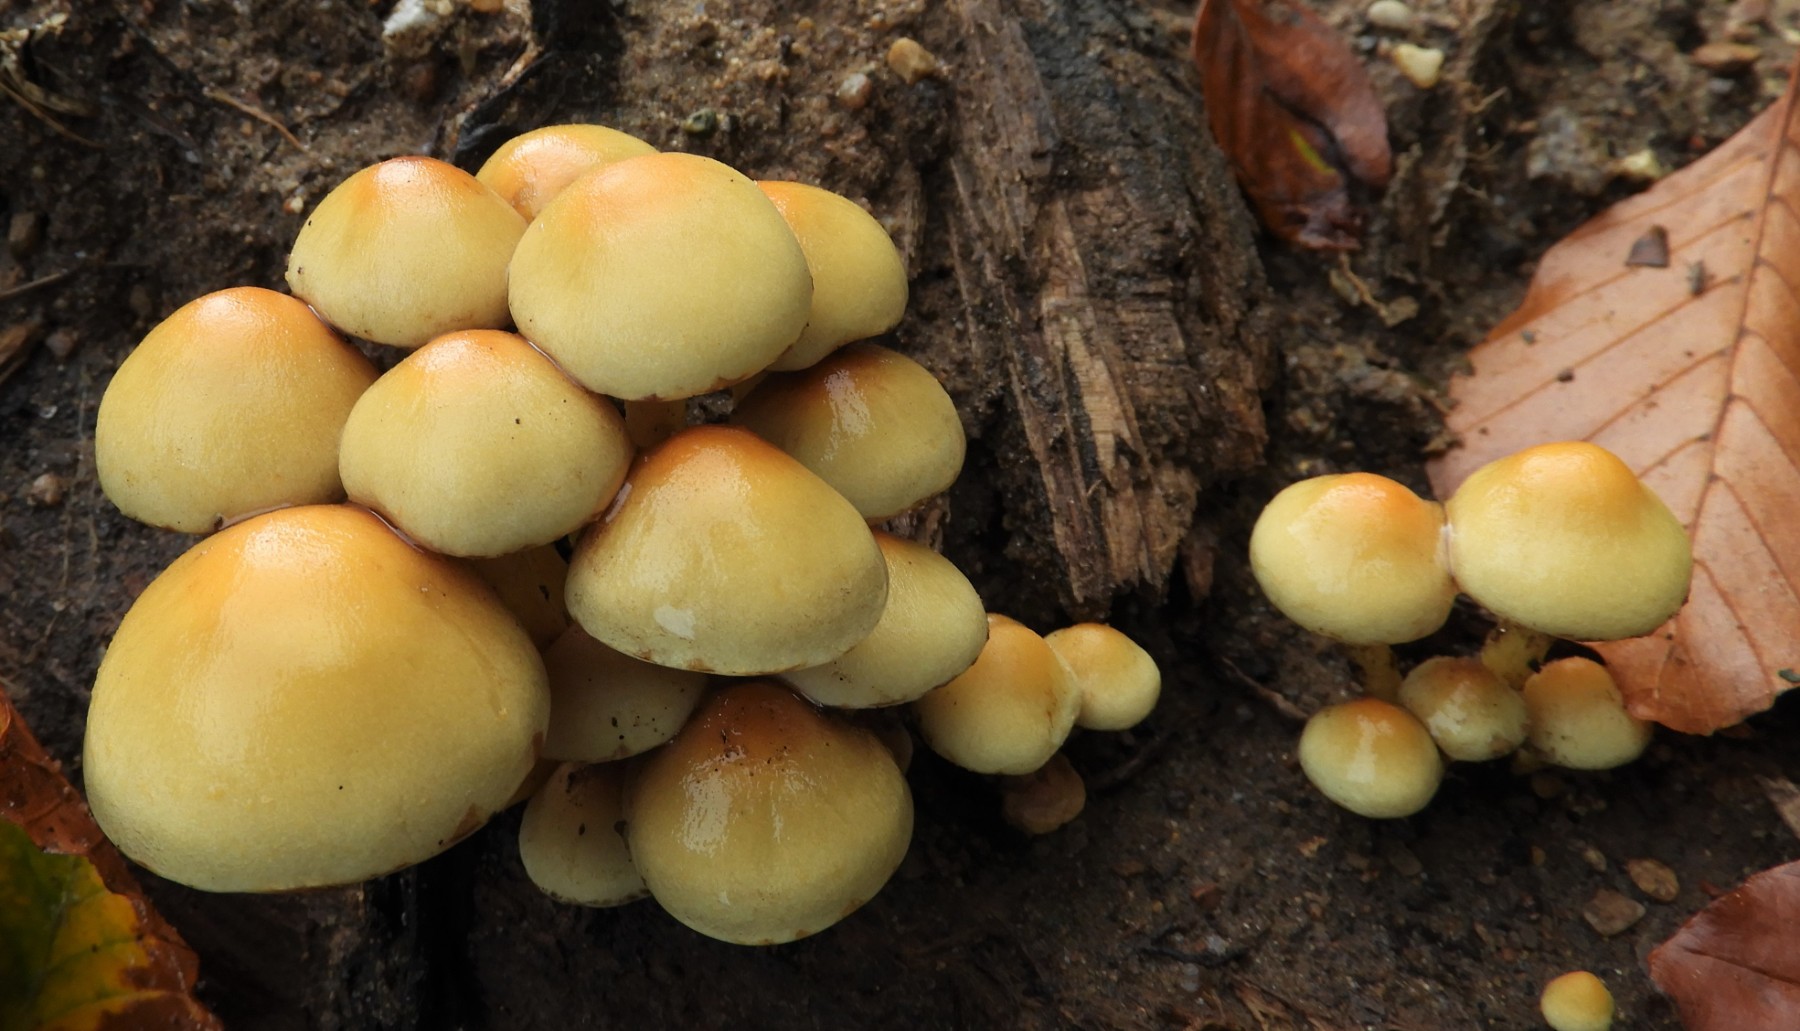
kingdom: Fungi
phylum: Basidiomycota
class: Agaricomycetes
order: Agaricales
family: Strophariaceae
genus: Hypholoma
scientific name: Hypholoma fasciculare
